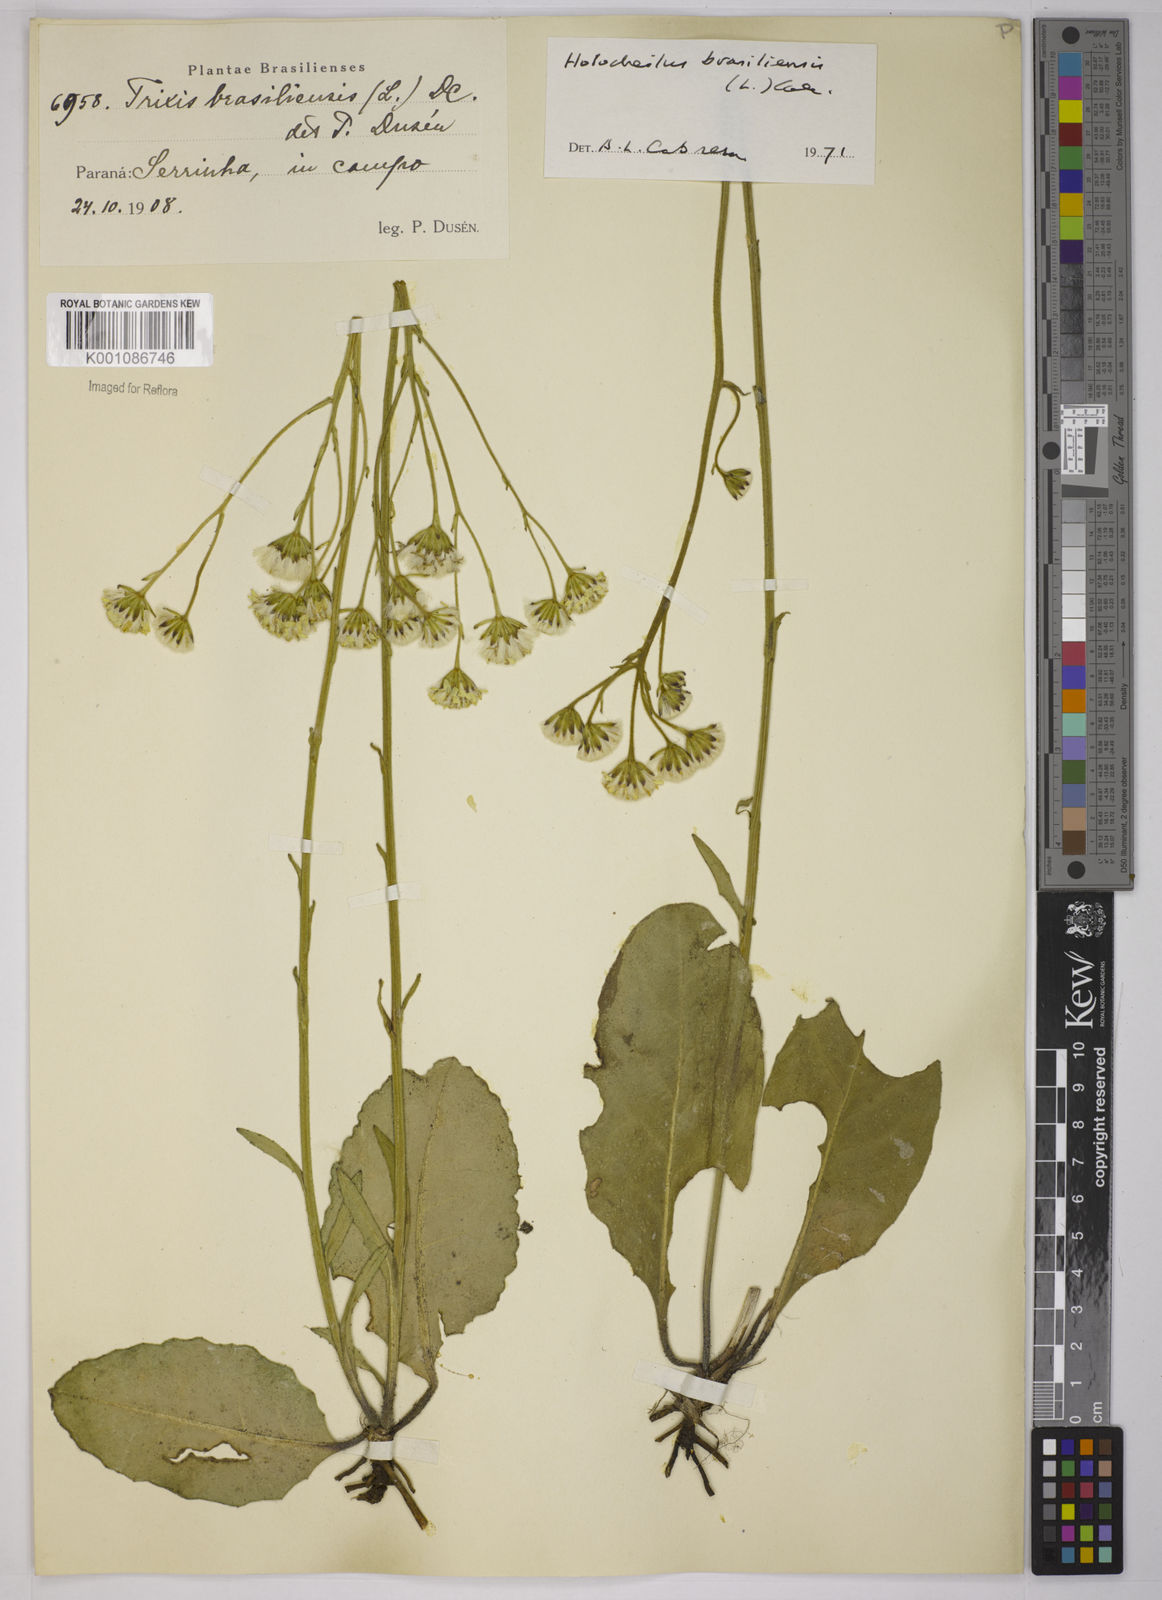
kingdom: Plantae
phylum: Tracheophyta
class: Magnoliopsida
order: Asterales
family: Asteraceae
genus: Holocheilus
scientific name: Holocheilus brasiliensis
